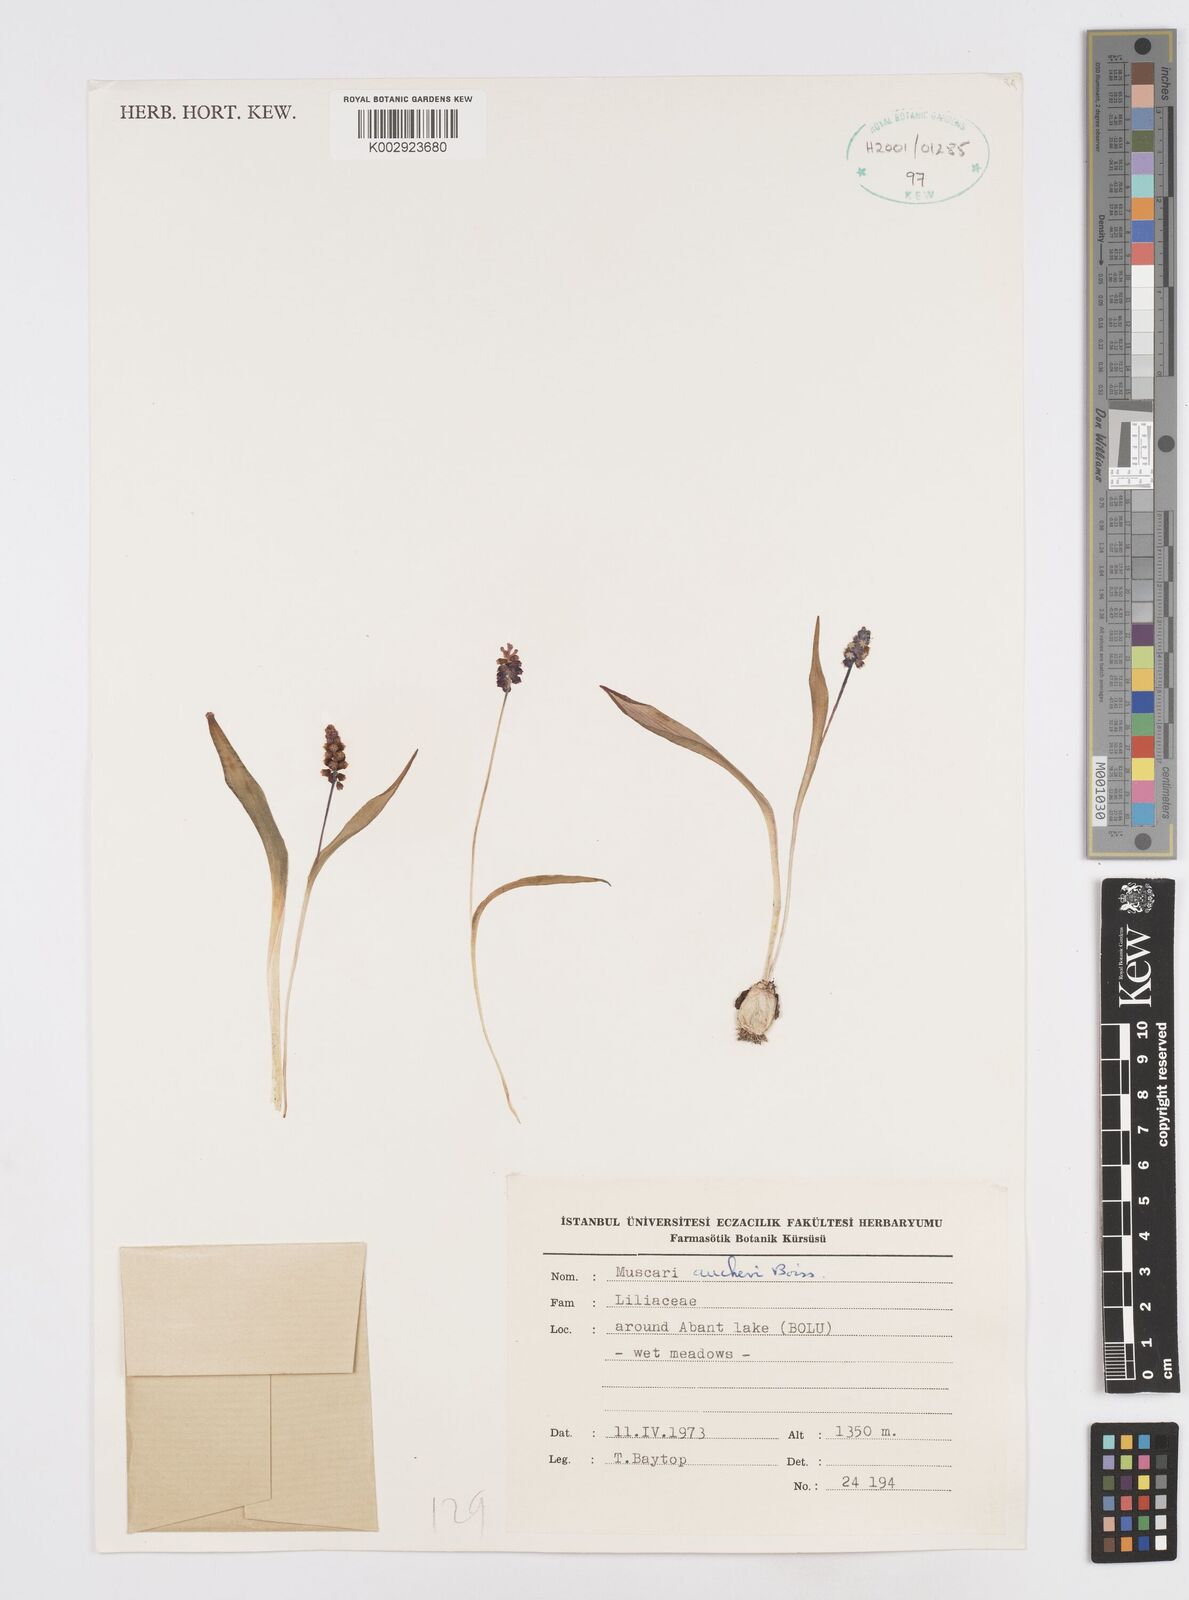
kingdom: Plantae
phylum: Tracheophyta
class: Liliopsida
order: Asparagales
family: Asparagaceae
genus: Muscari
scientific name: Muscari aucheri
